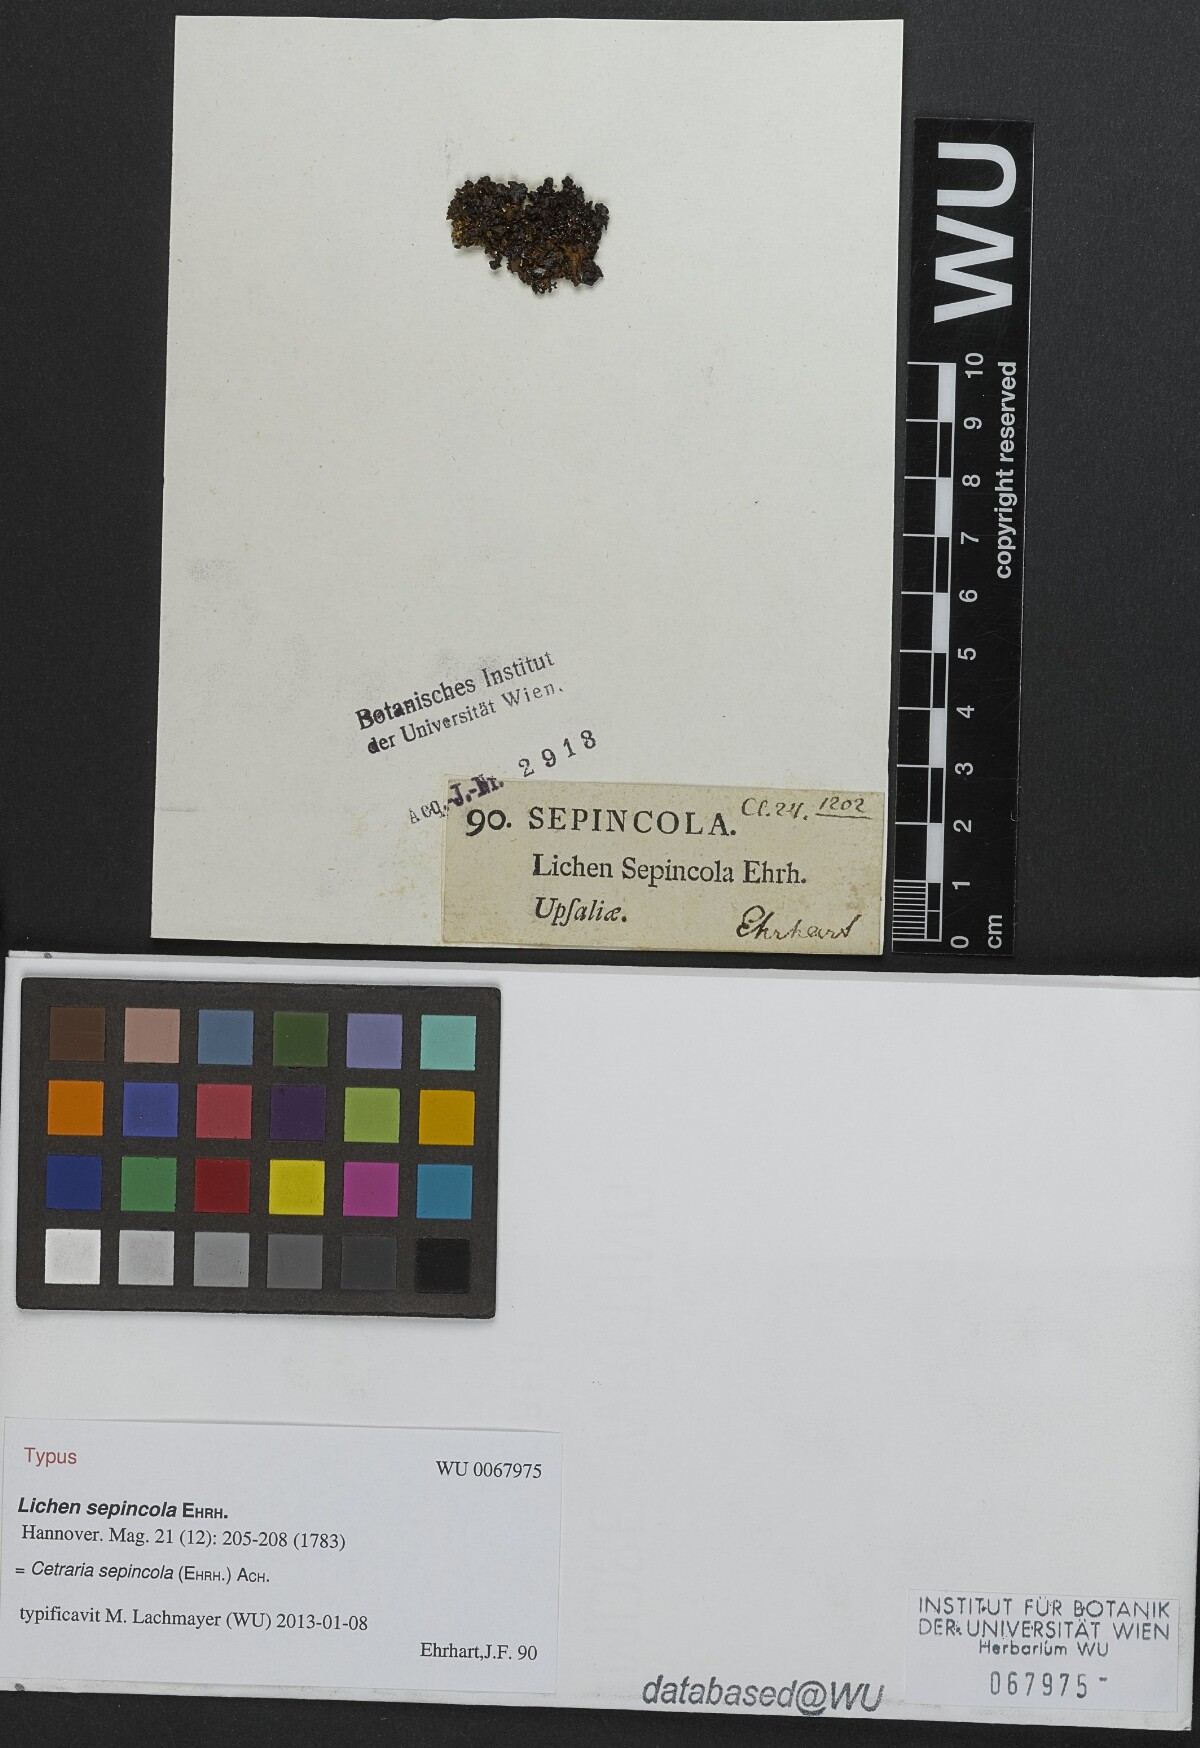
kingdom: Fungi
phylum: Ascomycota
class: Lecanoromycetes
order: Lecanorales
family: Parmeliaceae
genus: Cetraria
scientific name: Cetraria sepincola
